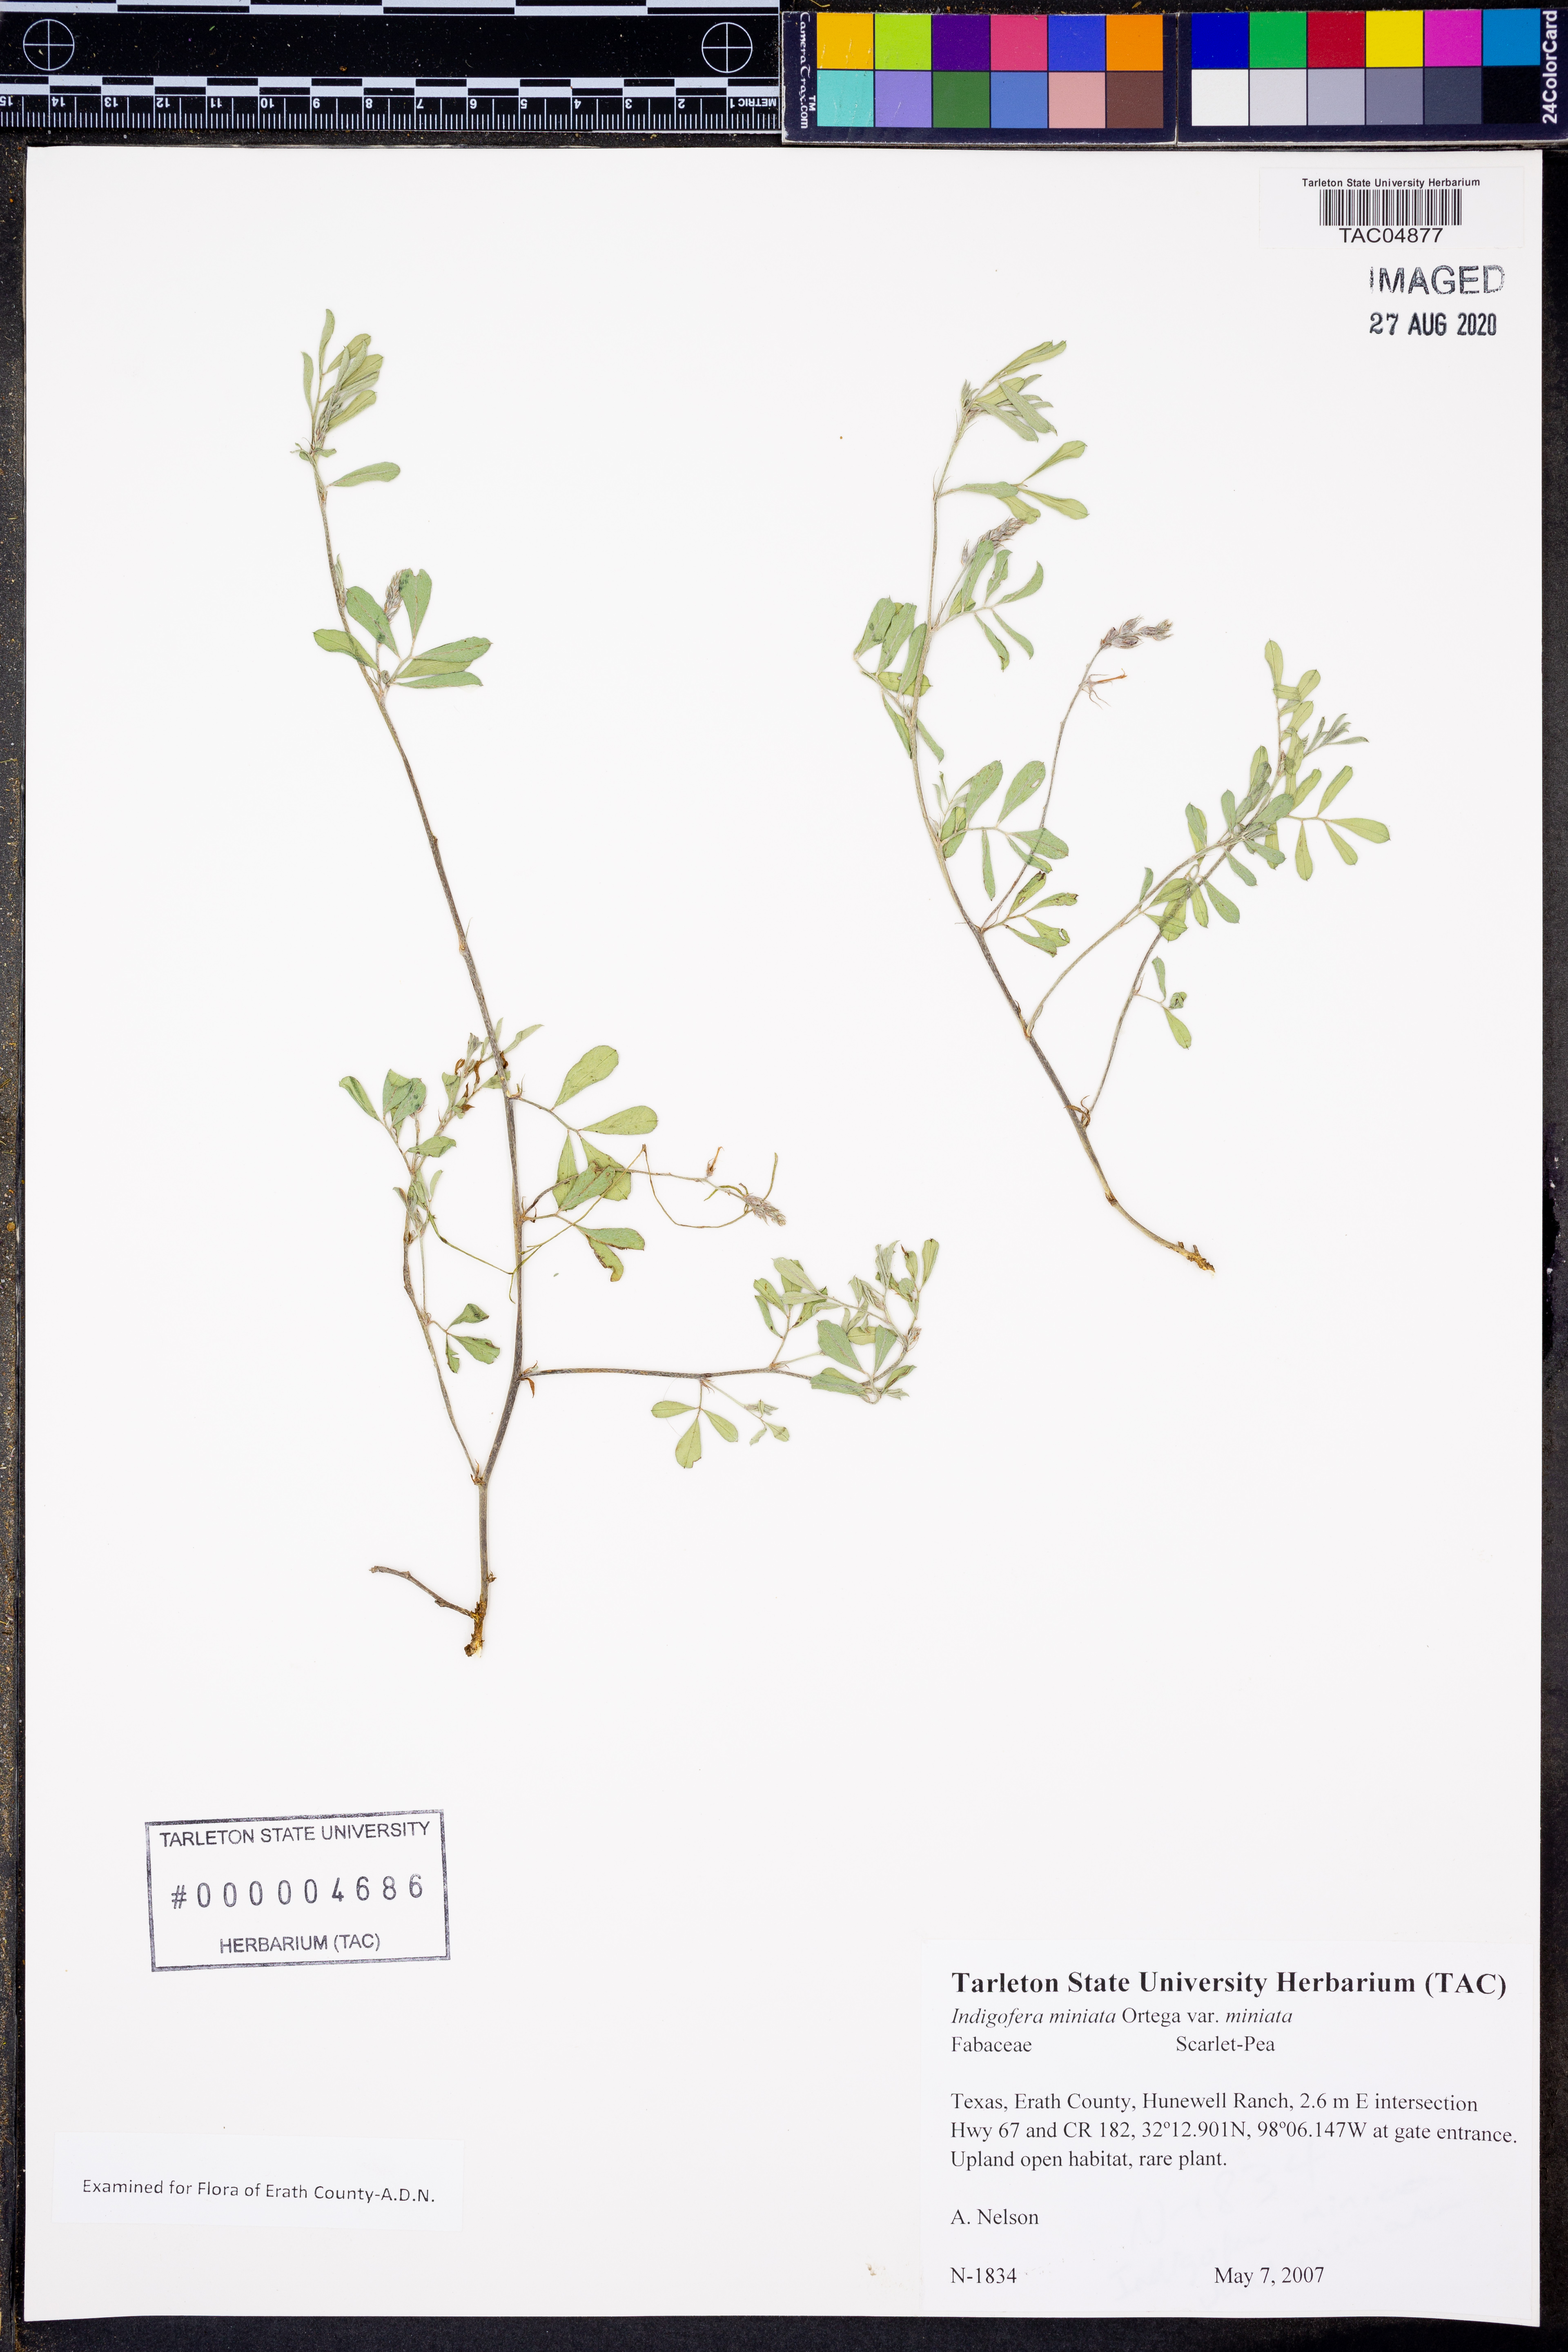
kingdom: Plantae
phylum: Tracheophyta
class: Magnoliopsida
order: Fabales
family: Fabaceae
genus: Indigofera
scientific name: Indigofera miniata
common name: Coast indigo
